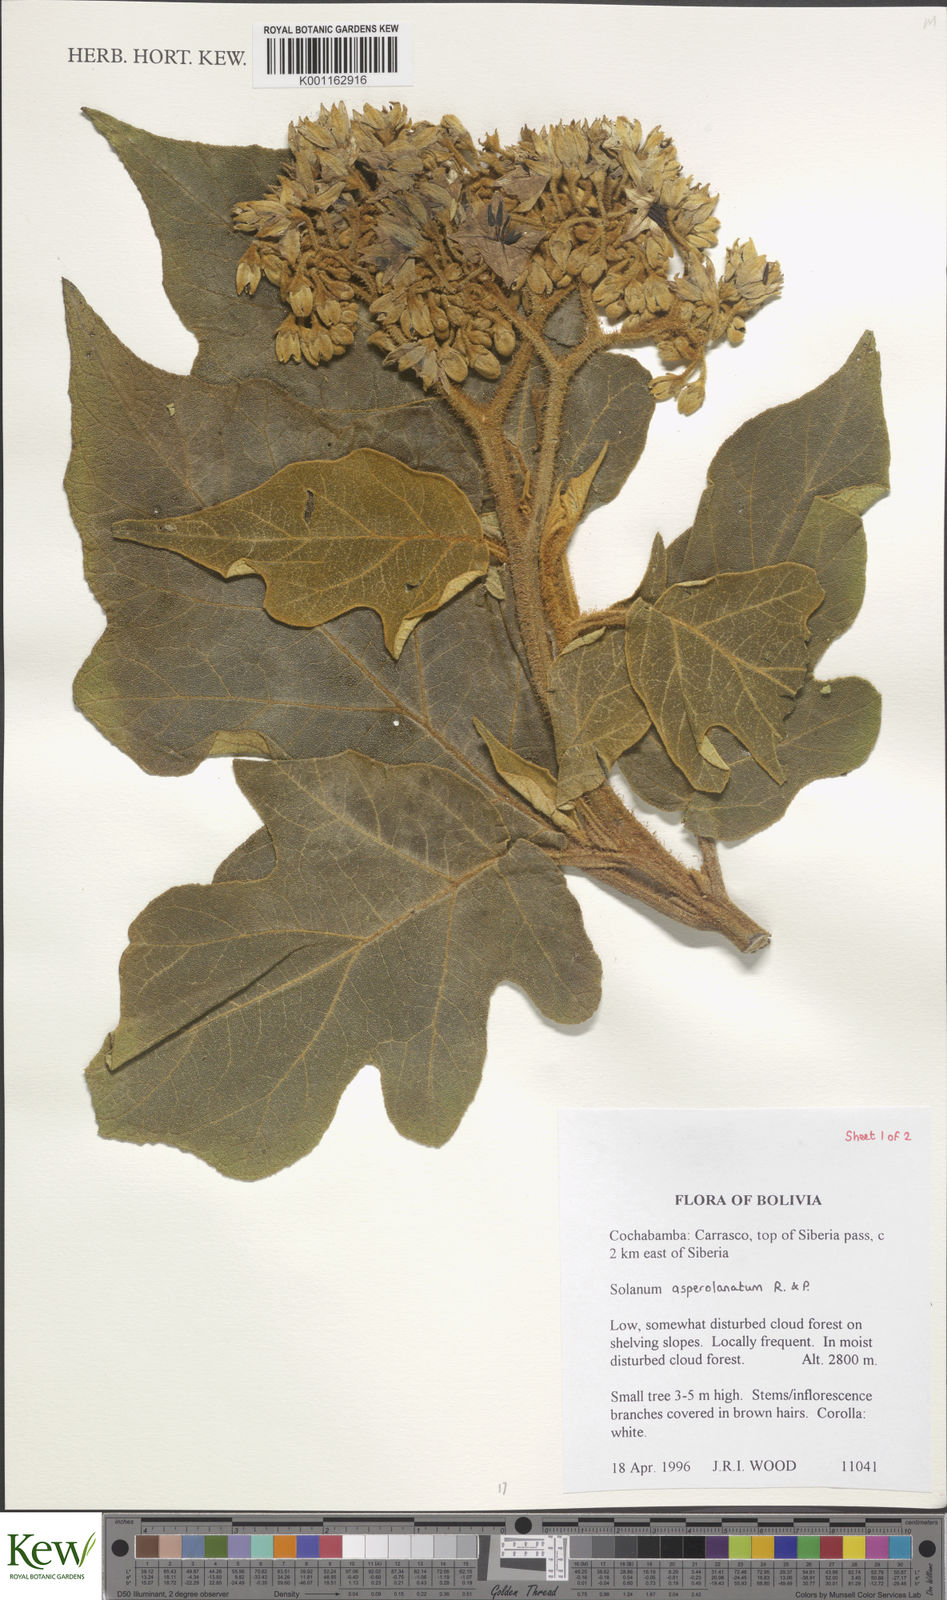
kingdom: Plantae
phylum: Tracheophyta
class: Magnoliopsida
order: Solanales
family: Solanaceae
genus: Solanum
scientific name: Solanum asperolanatum
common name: Devil's-fig
